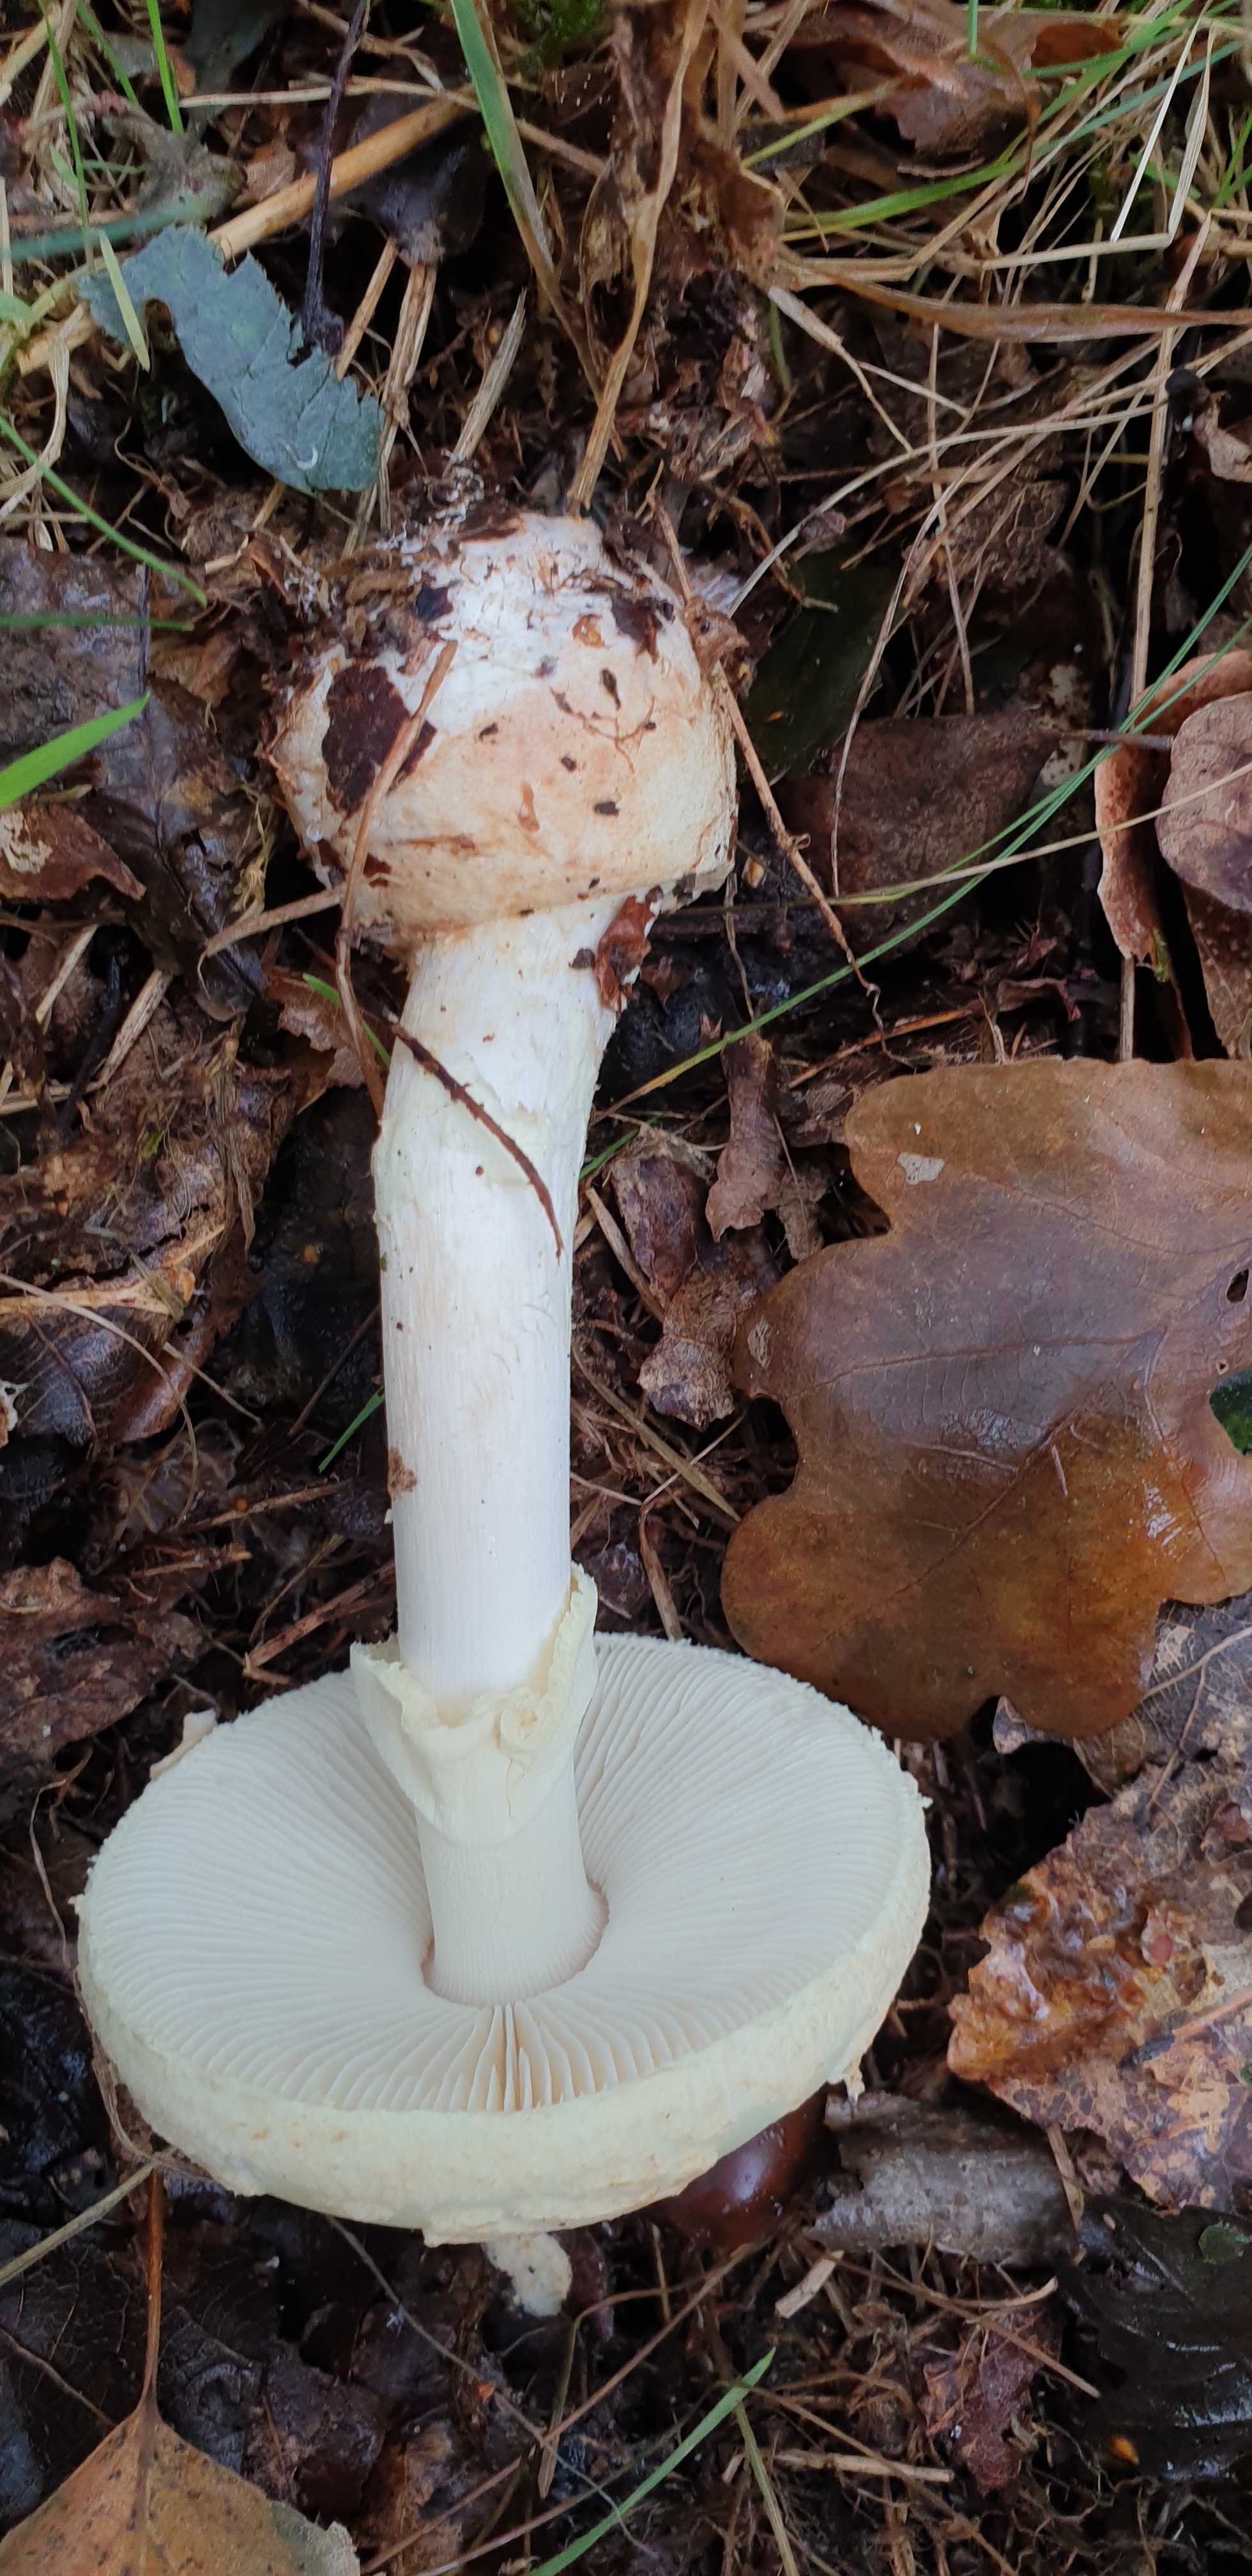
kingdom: Fungi
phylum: Basidiomycota
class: Agaricomycetes
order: Agaricales
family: Amanitaceae
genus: Amanita
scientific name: Amanita citrina
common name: kugleknoldet fluesvamp
